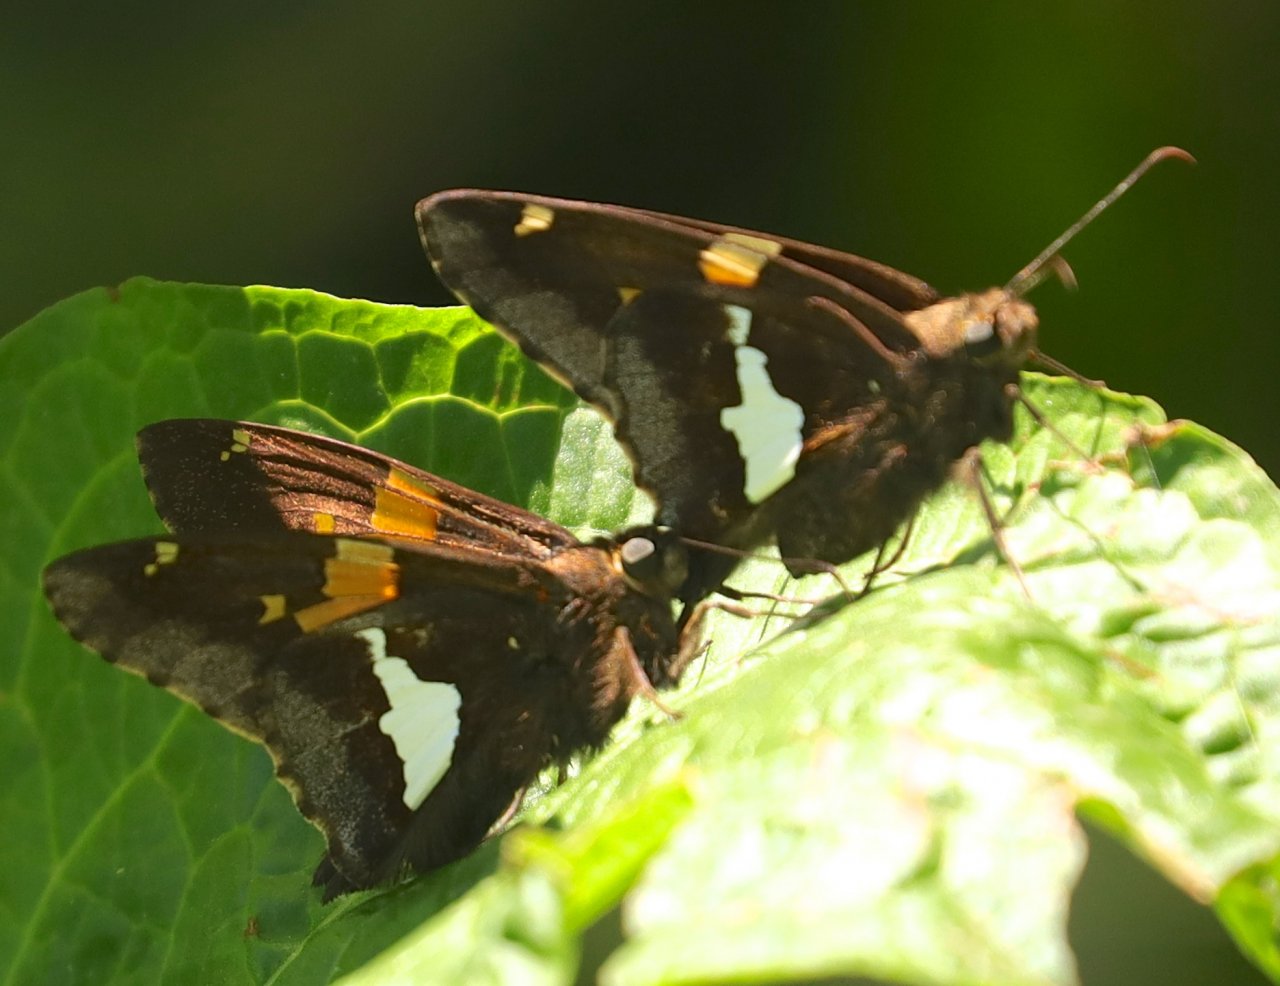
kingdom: Animalia
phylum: Arthropoda
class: Insecta
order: Lepidoptera
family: Hesperiidae
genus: Epargyreus
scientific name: Epargyreus clarus
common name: Silver-spotted Skipper
